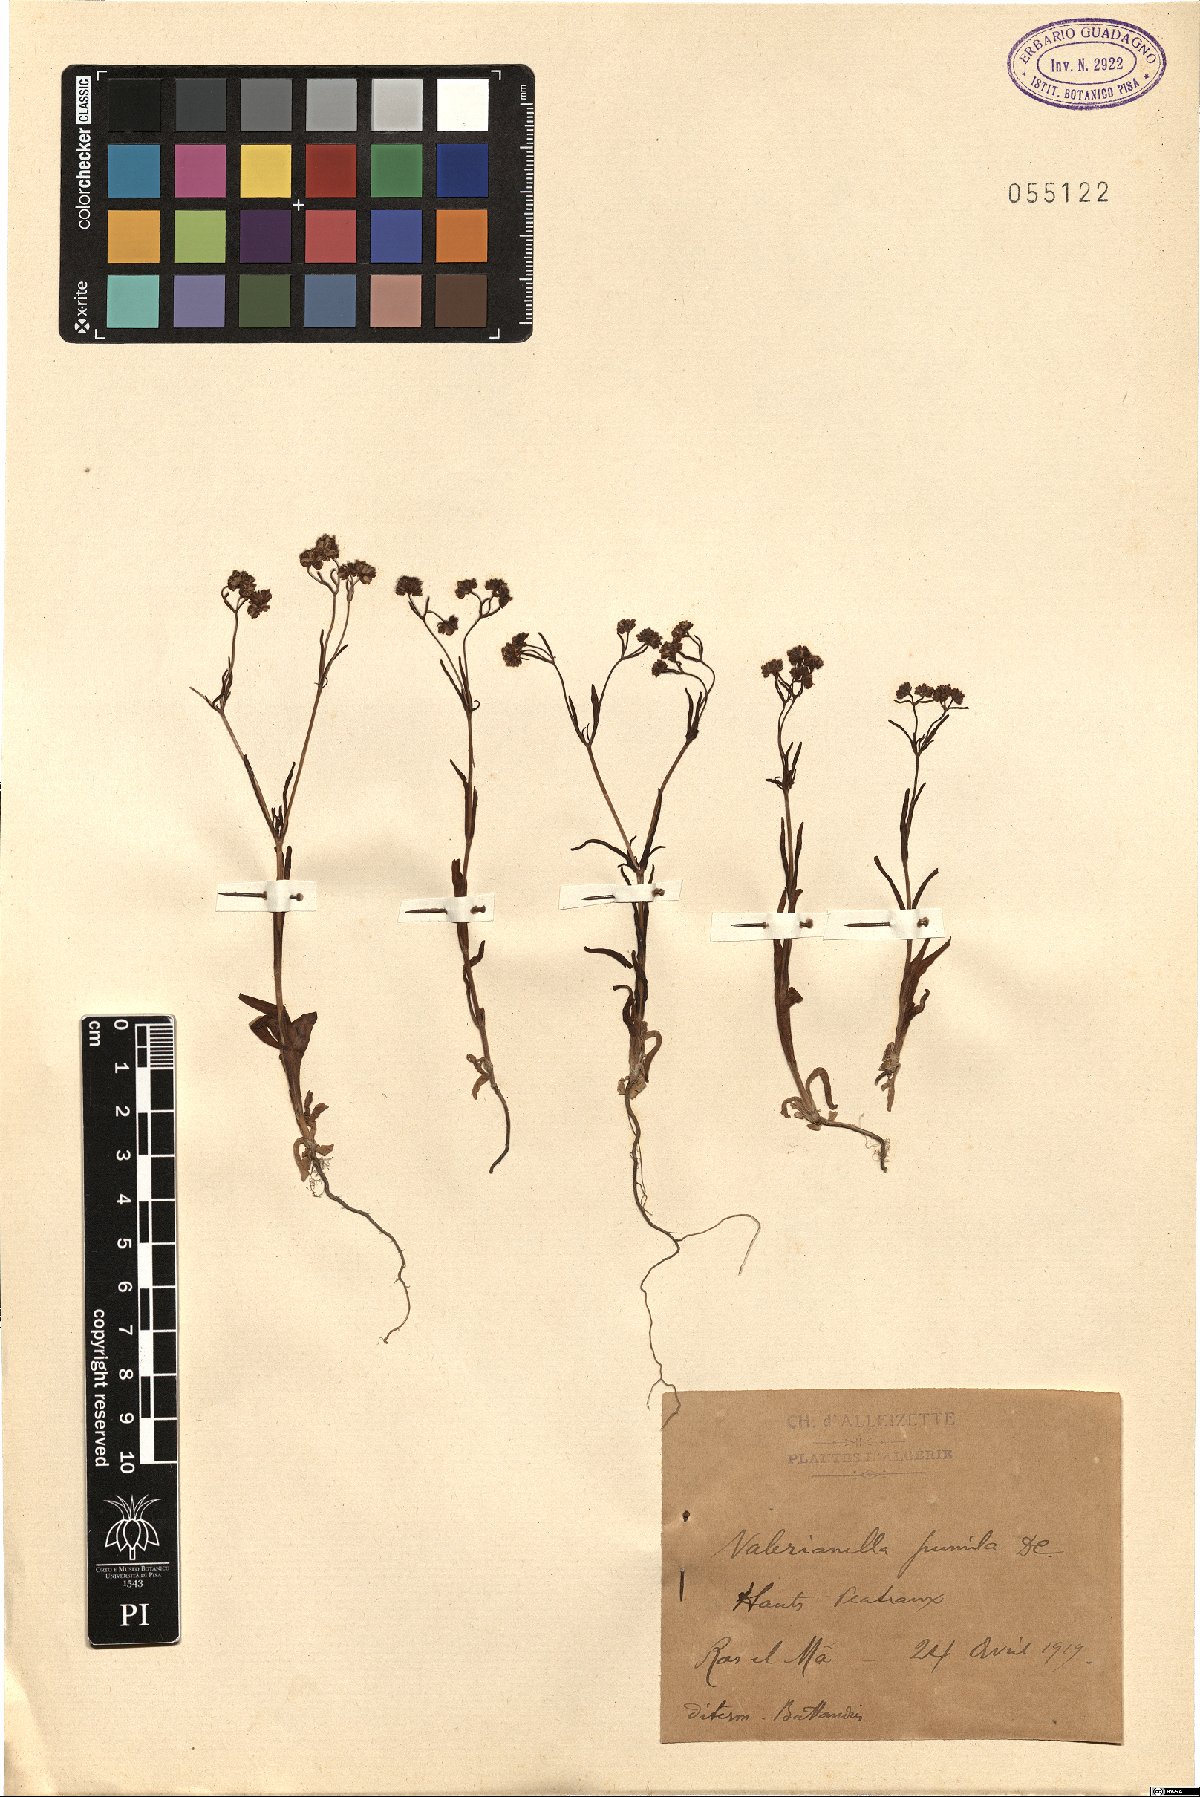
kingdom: Plantae
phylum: Tracheophyta
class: Magnoliopsida
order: Dipsacales
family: Caprifoliaceae
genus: Valerianella
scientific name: Valerianella pumila
